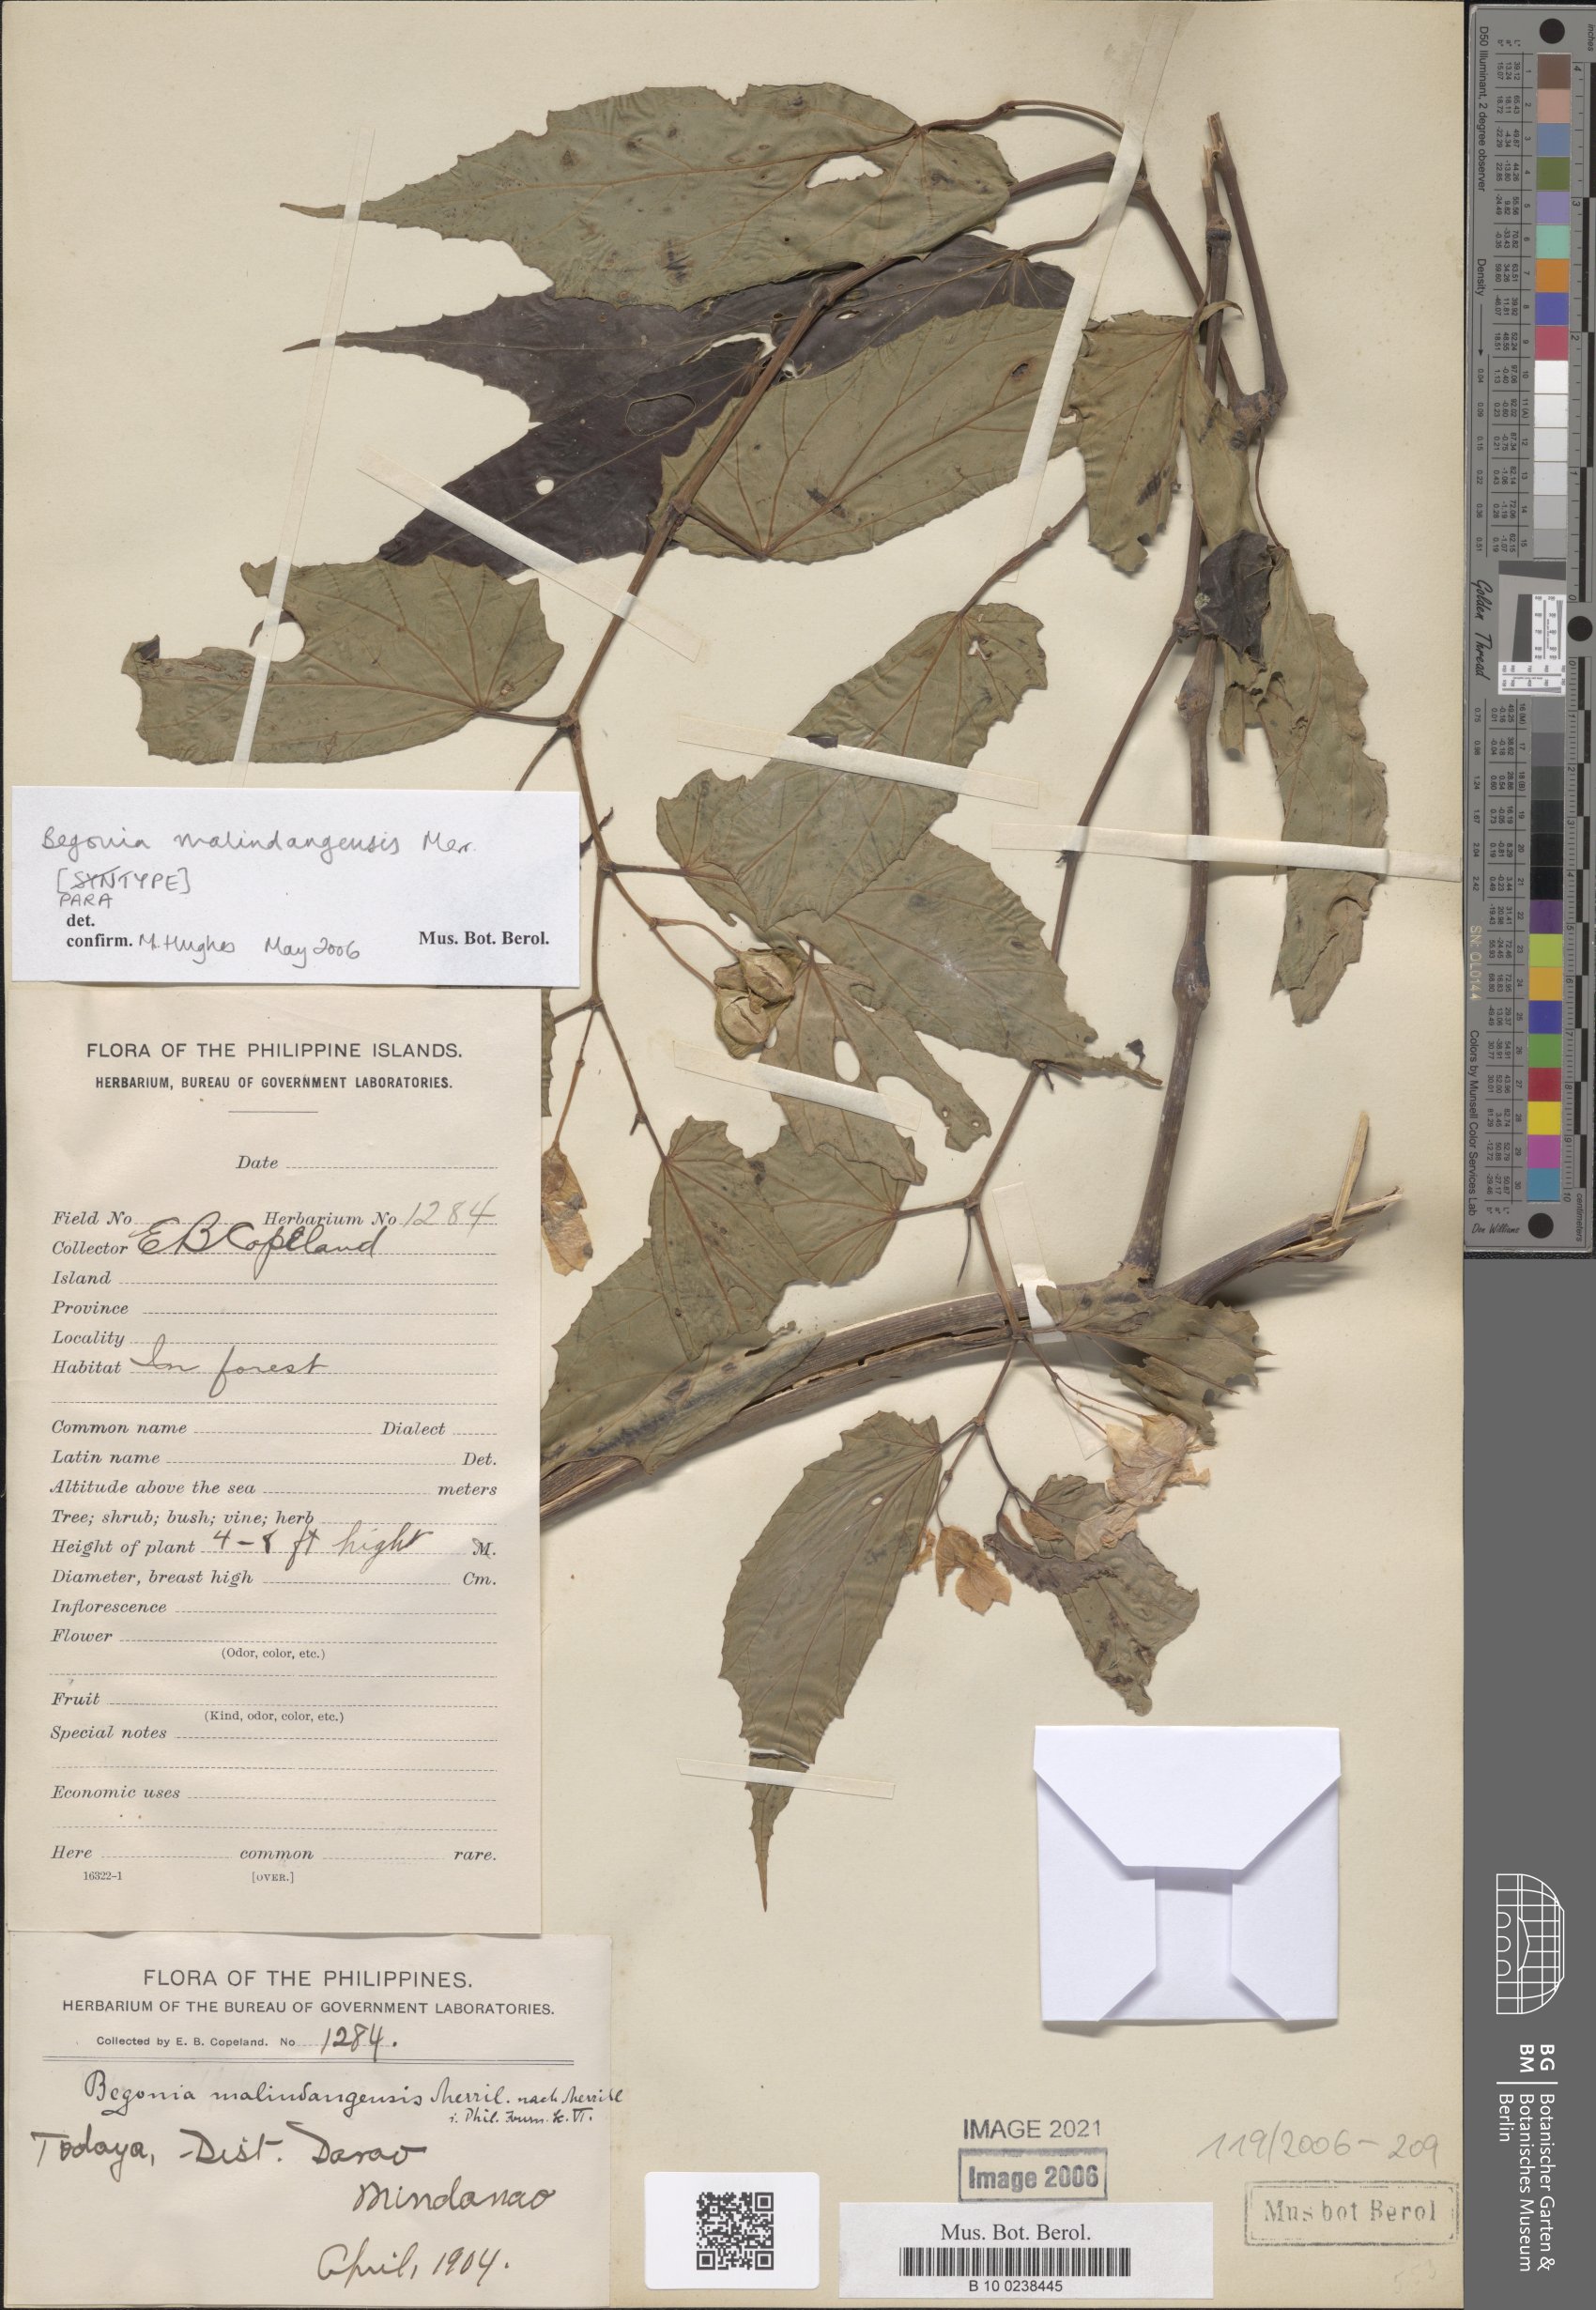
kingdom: Plantae
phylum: Tracheophyta
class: Magnoliopsida
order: Cucurbitales
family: Begoniaceae
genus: Begonia
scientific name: Begonia malindangensis
